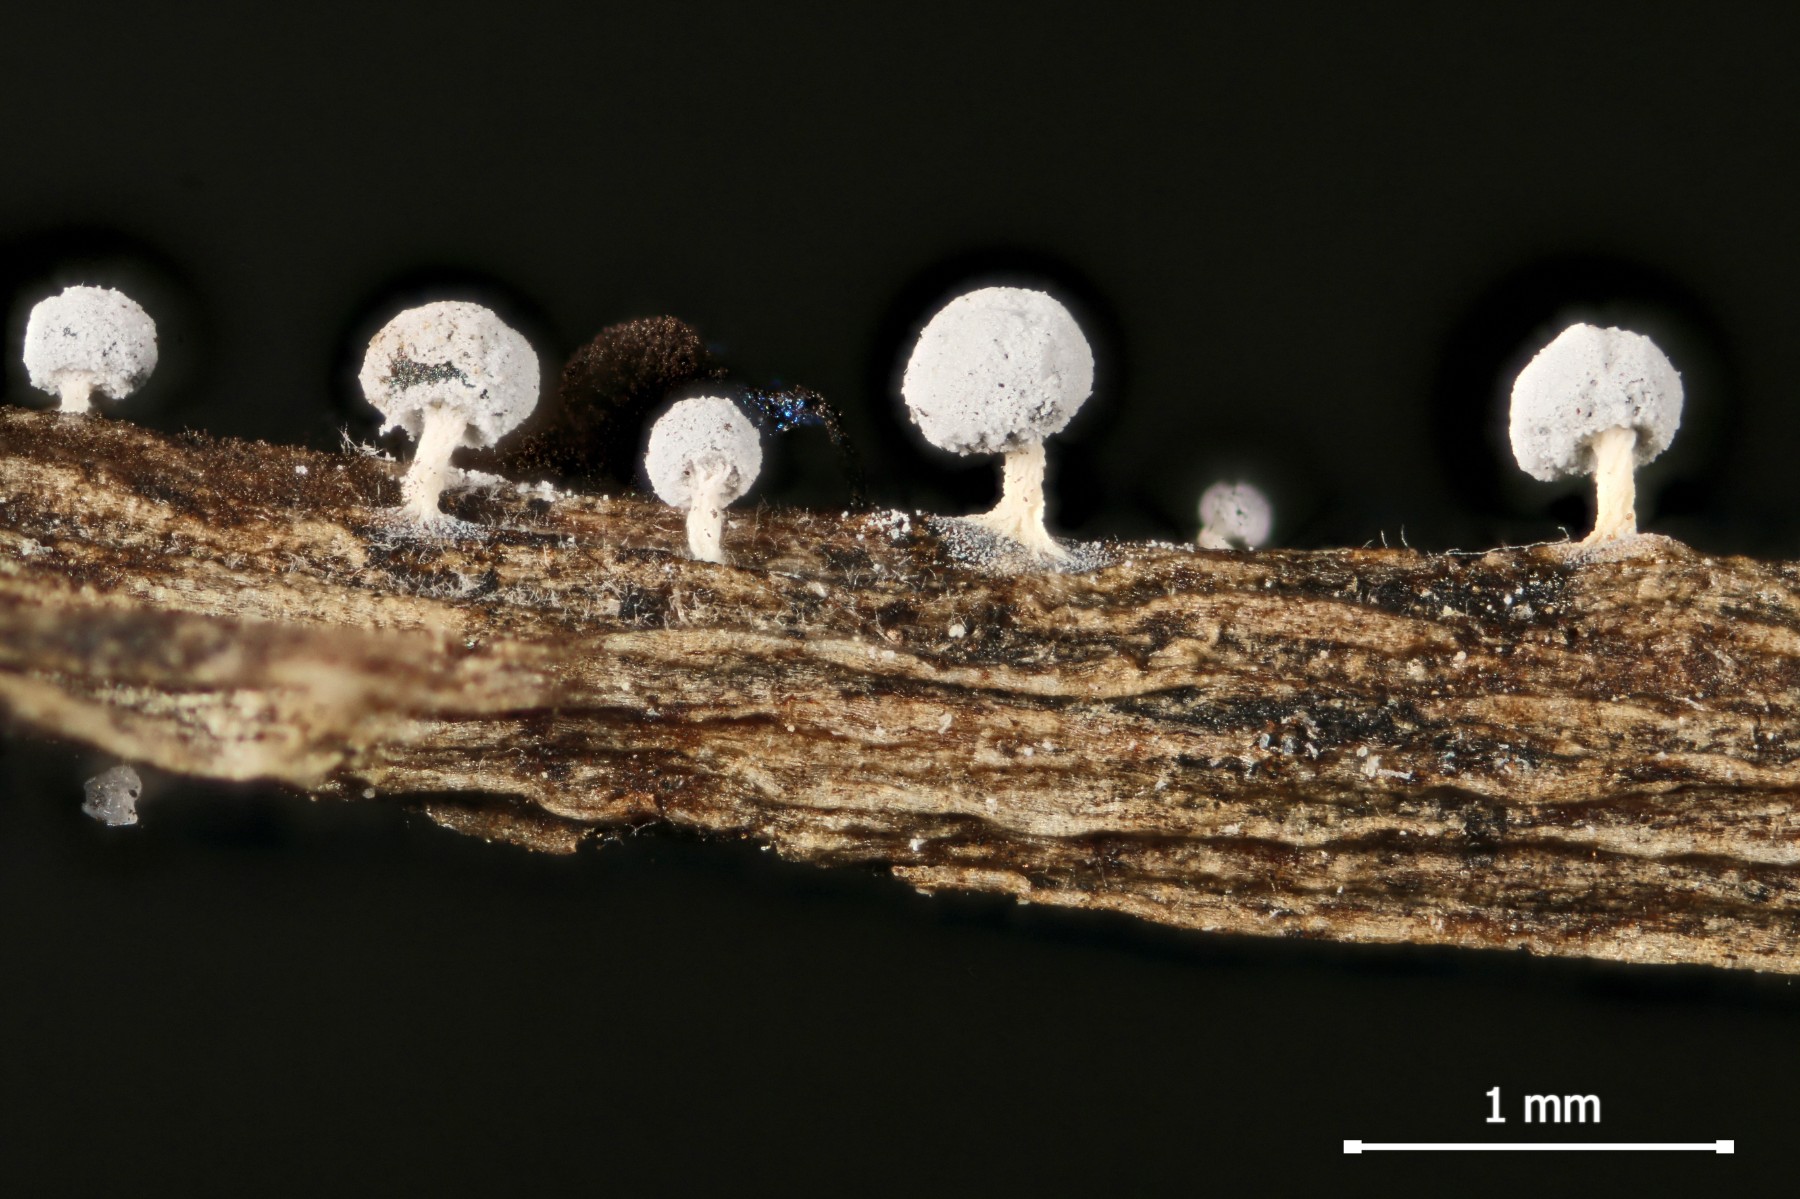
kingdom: Protozoa
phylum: Mycetozoa
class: Myxomycetes
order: Physarales
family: Didymiaceae
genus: Didymium
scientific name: Didymium squamulosum
